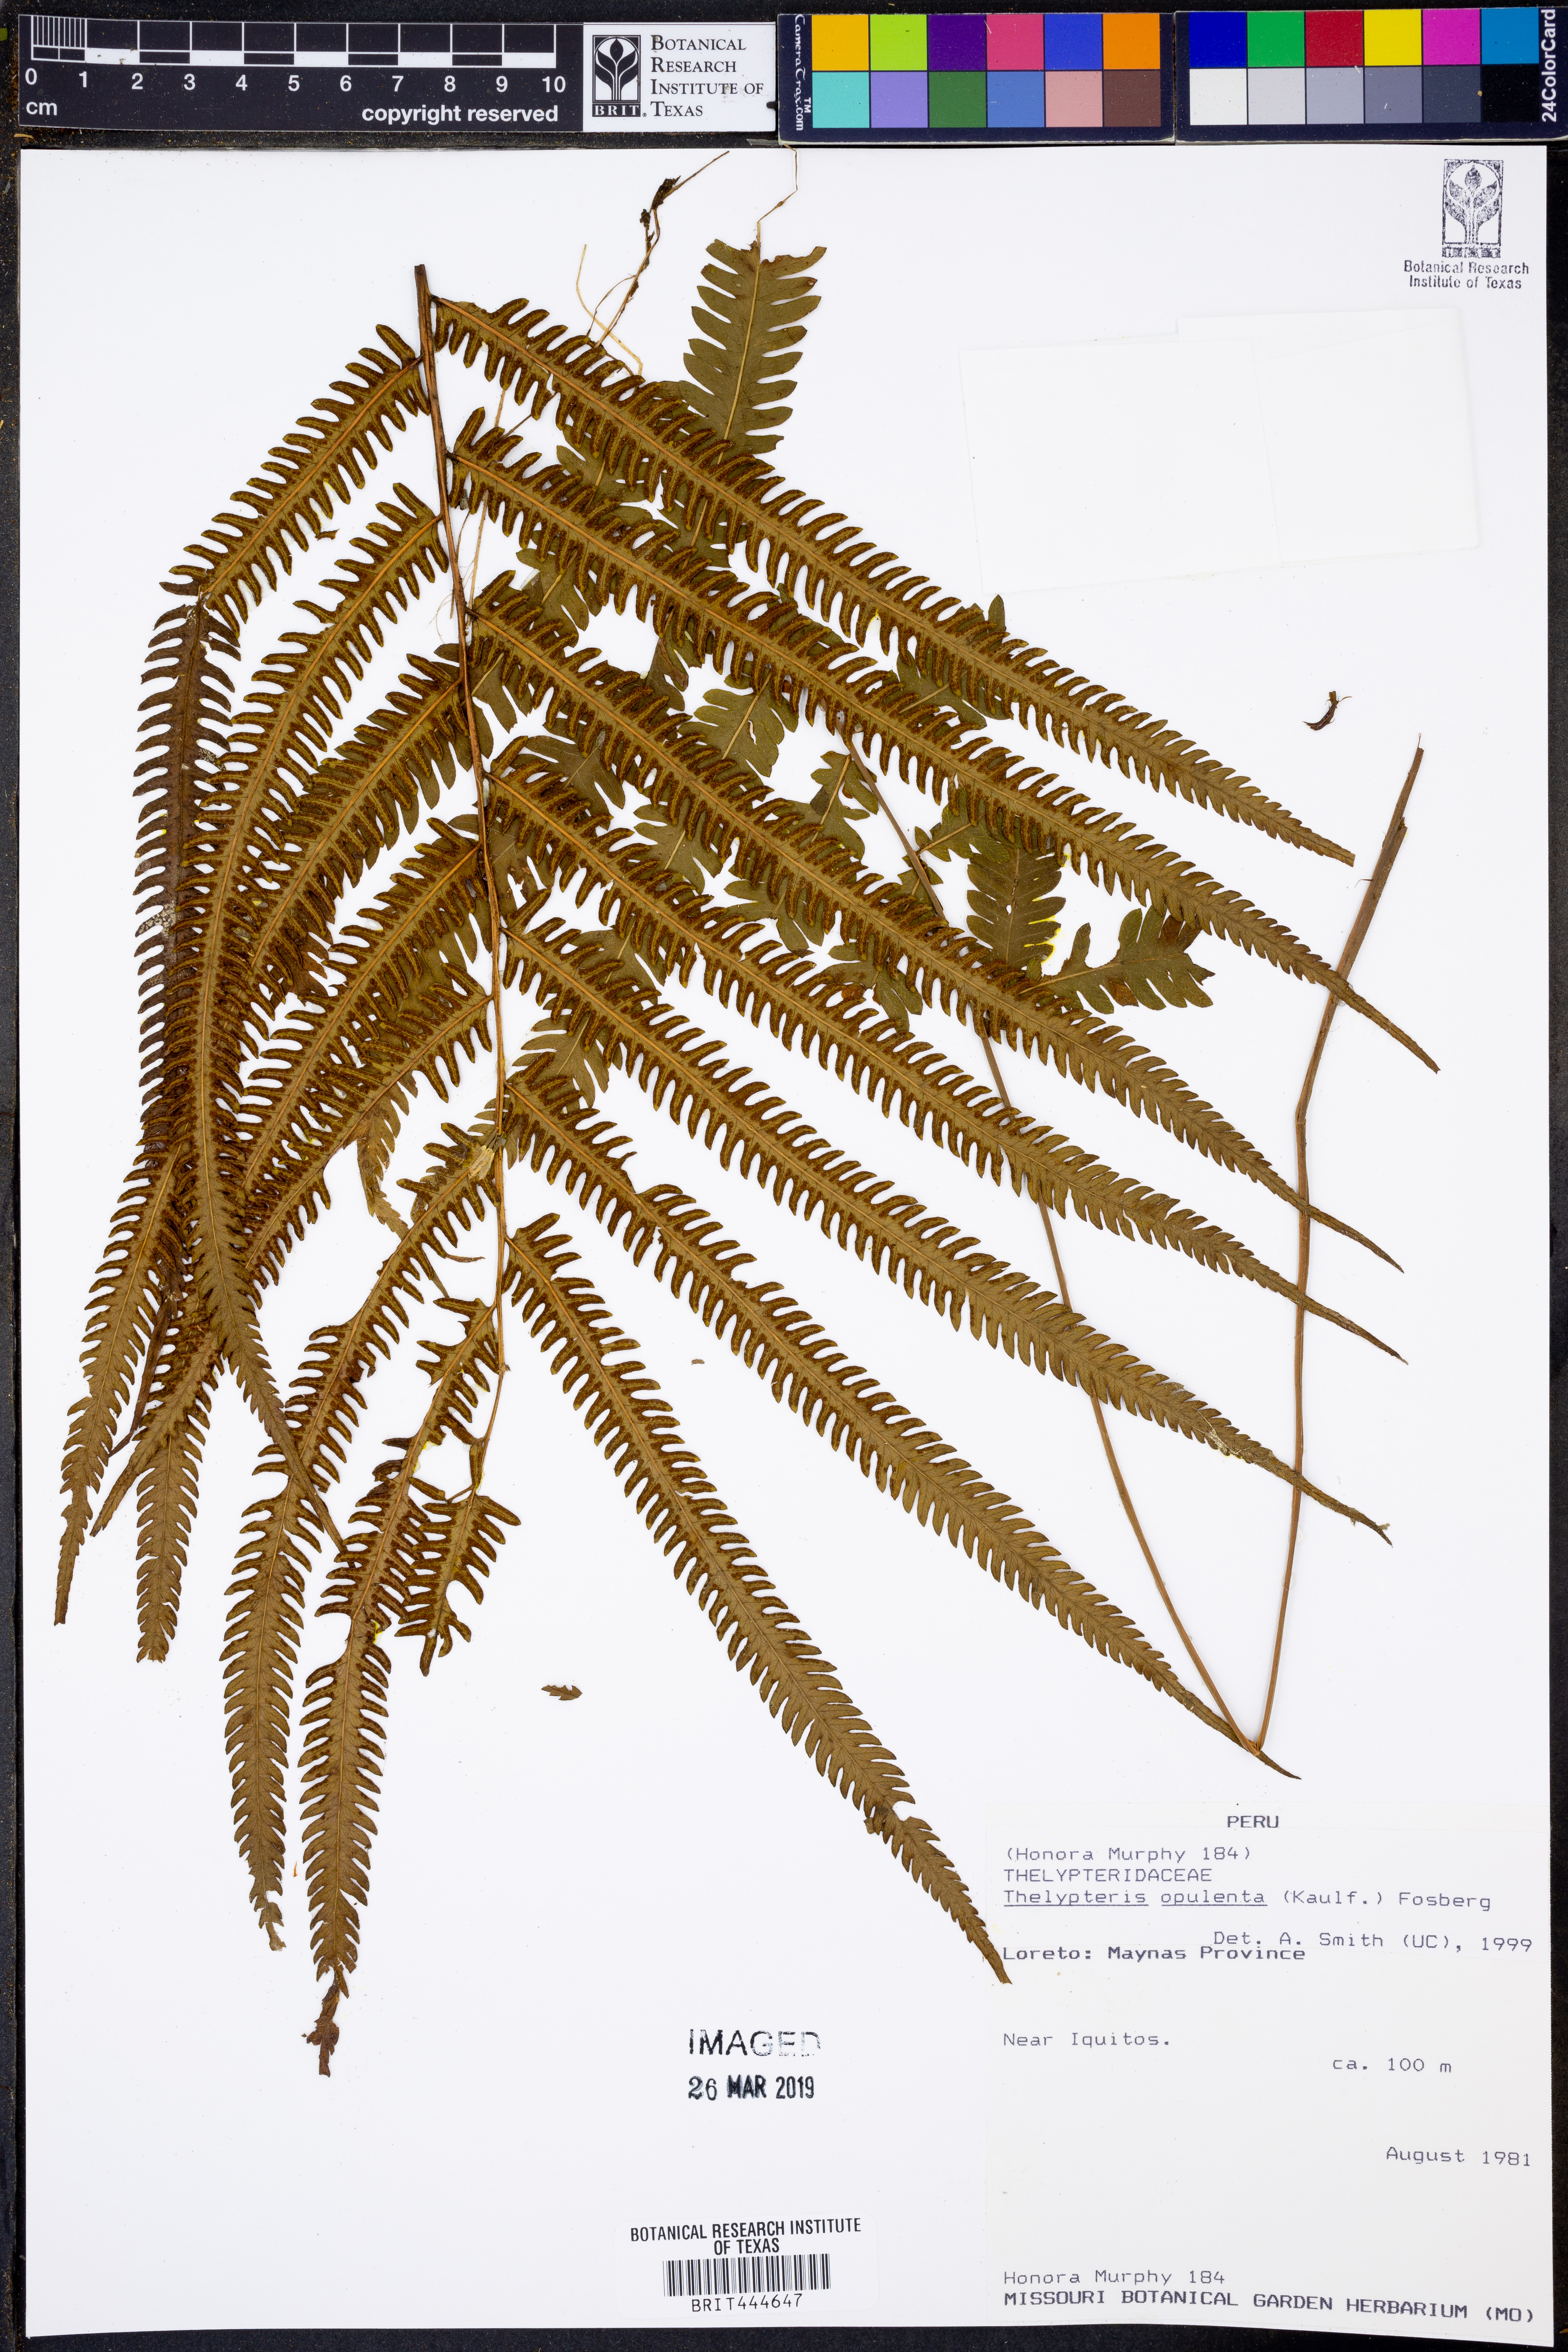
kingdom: Plantae
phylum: Tracheophyta
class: Polypodiopsida
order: Polypodiales
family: Thelypteridaceae
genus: Amblovenatum
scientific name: Amblovenatum opulentum
